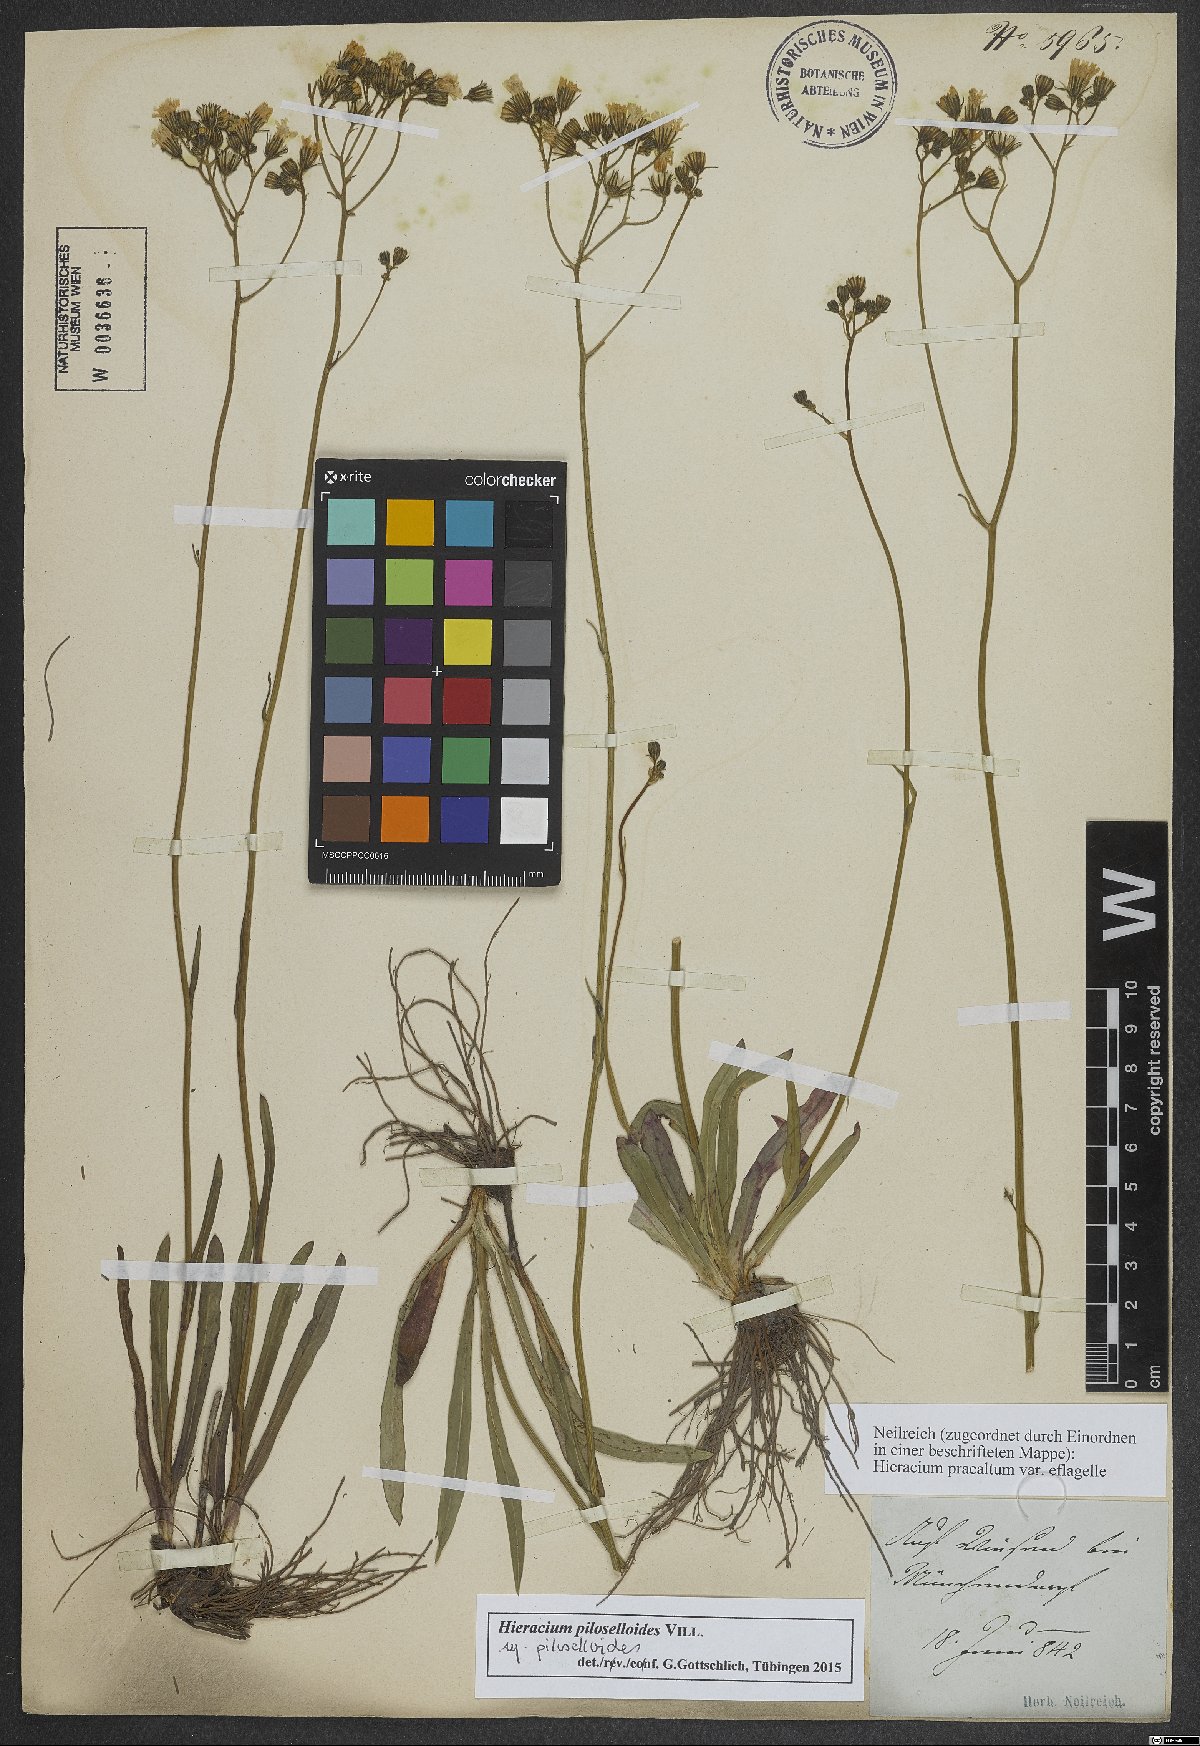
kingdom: Plantae
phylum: Tracheophyta
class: Magnoliopsida
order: Asterales
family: Asteraceae
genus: Pilosella
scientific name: Pilosella piloselloides
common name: Glaucous king-devil
